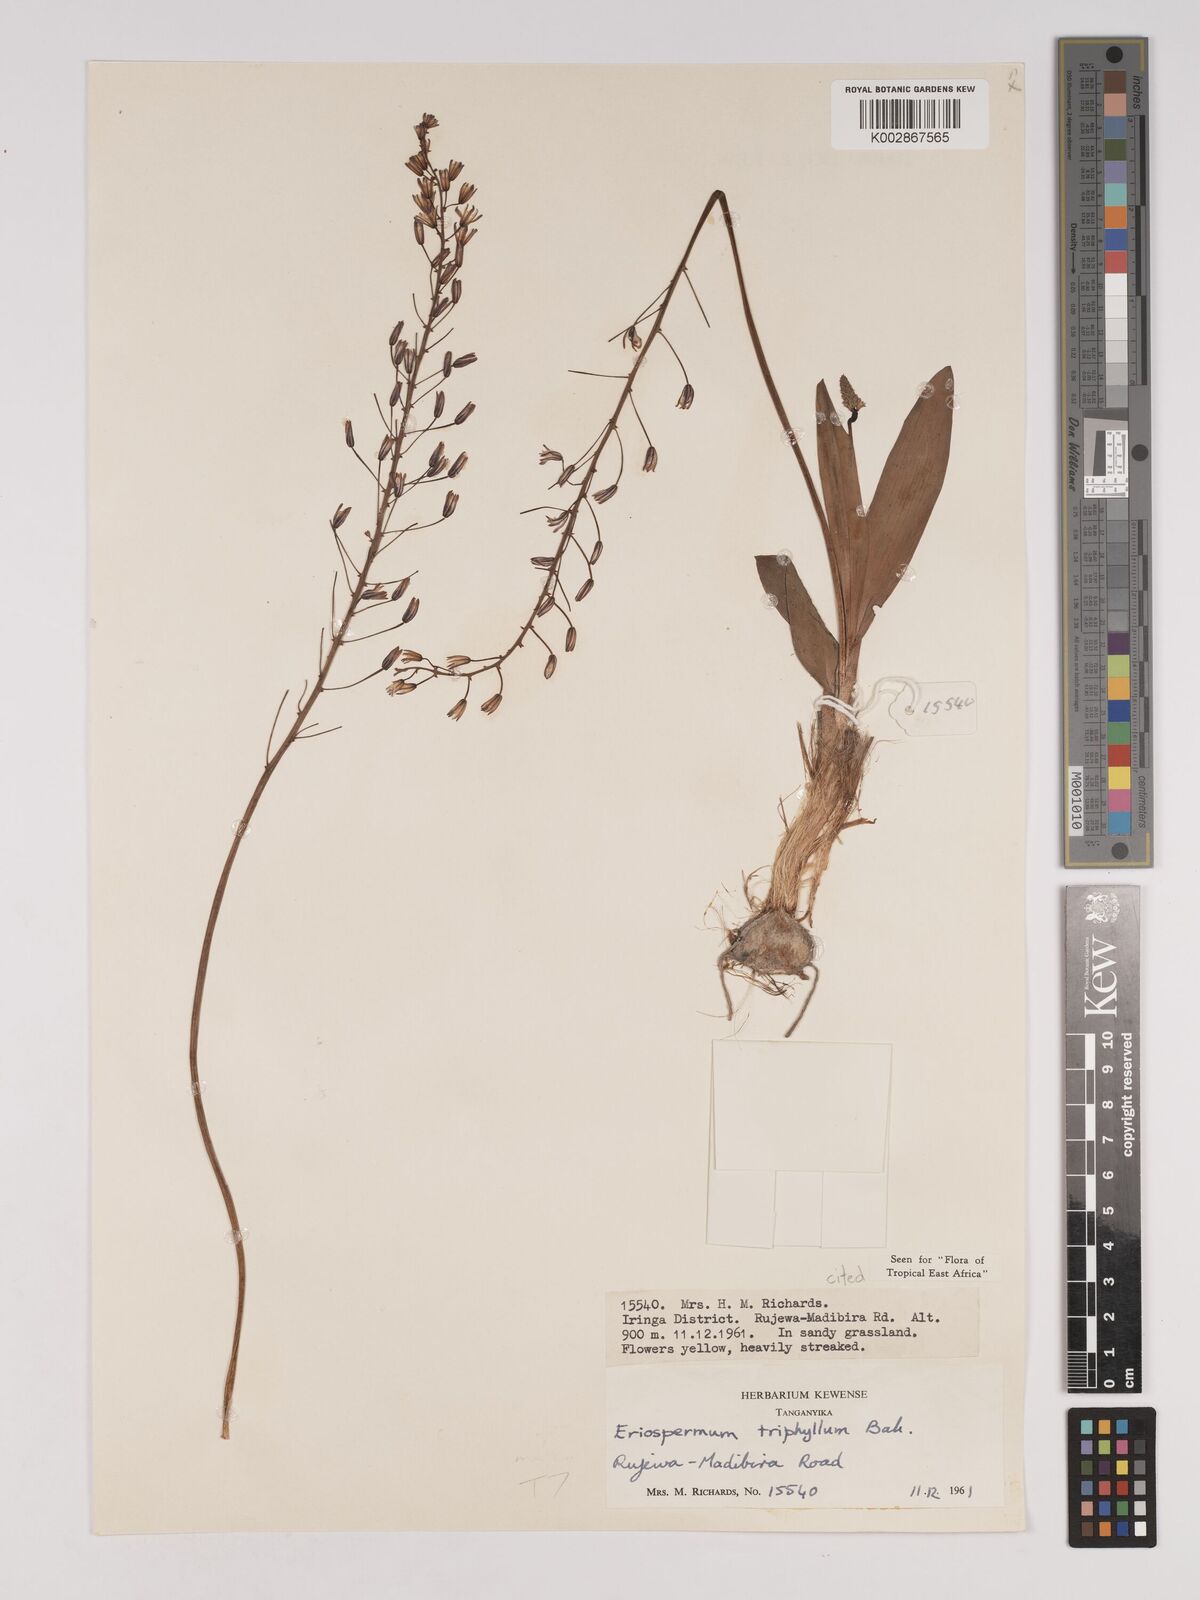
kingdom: Plantae
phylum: Tracheophyta
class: Liliopsida
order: Asparagales
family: Asparagaceae
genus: Eriospermum
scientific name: Eriospermum triphyllum
